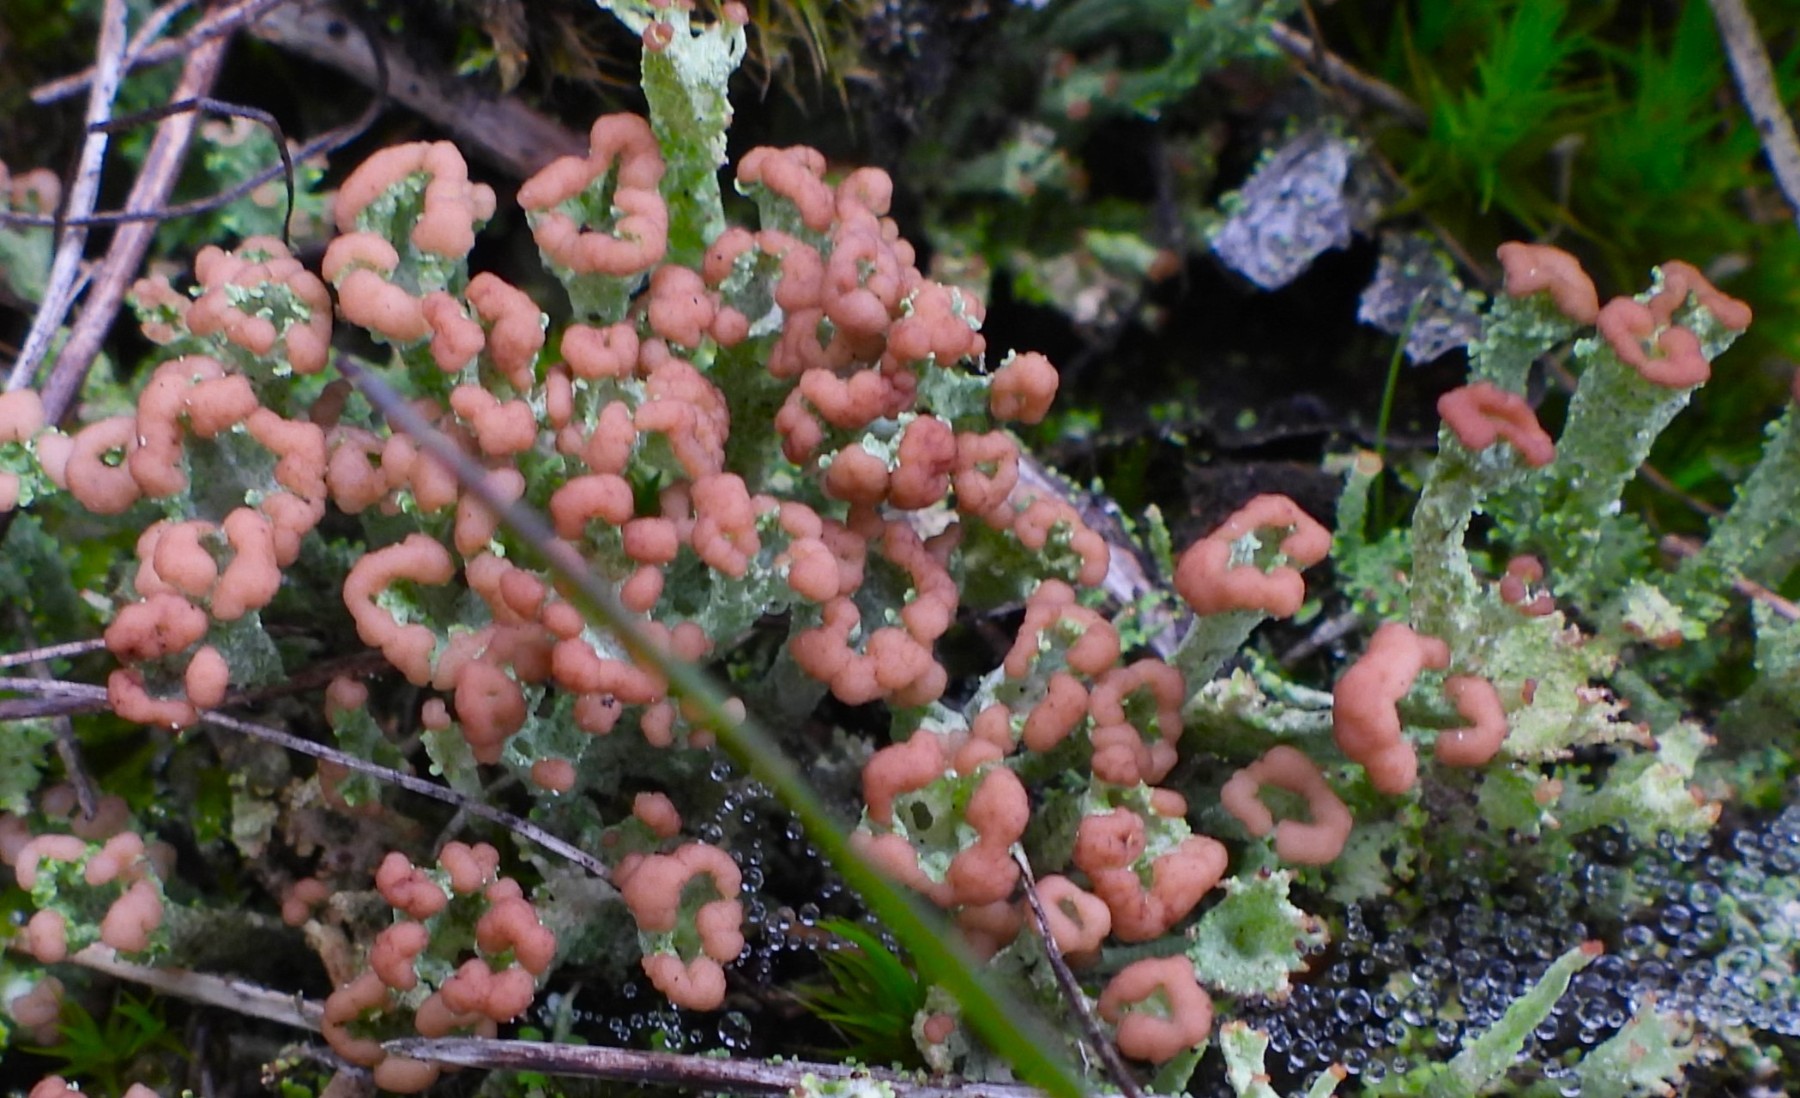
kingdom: Fungi
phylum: Ascomycota
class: Lecanoromycetes
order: Lecanorales
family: Cladoniaceae
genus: Cladonia
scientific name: Cladonia ramulosa
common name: kliddet bægerlav
